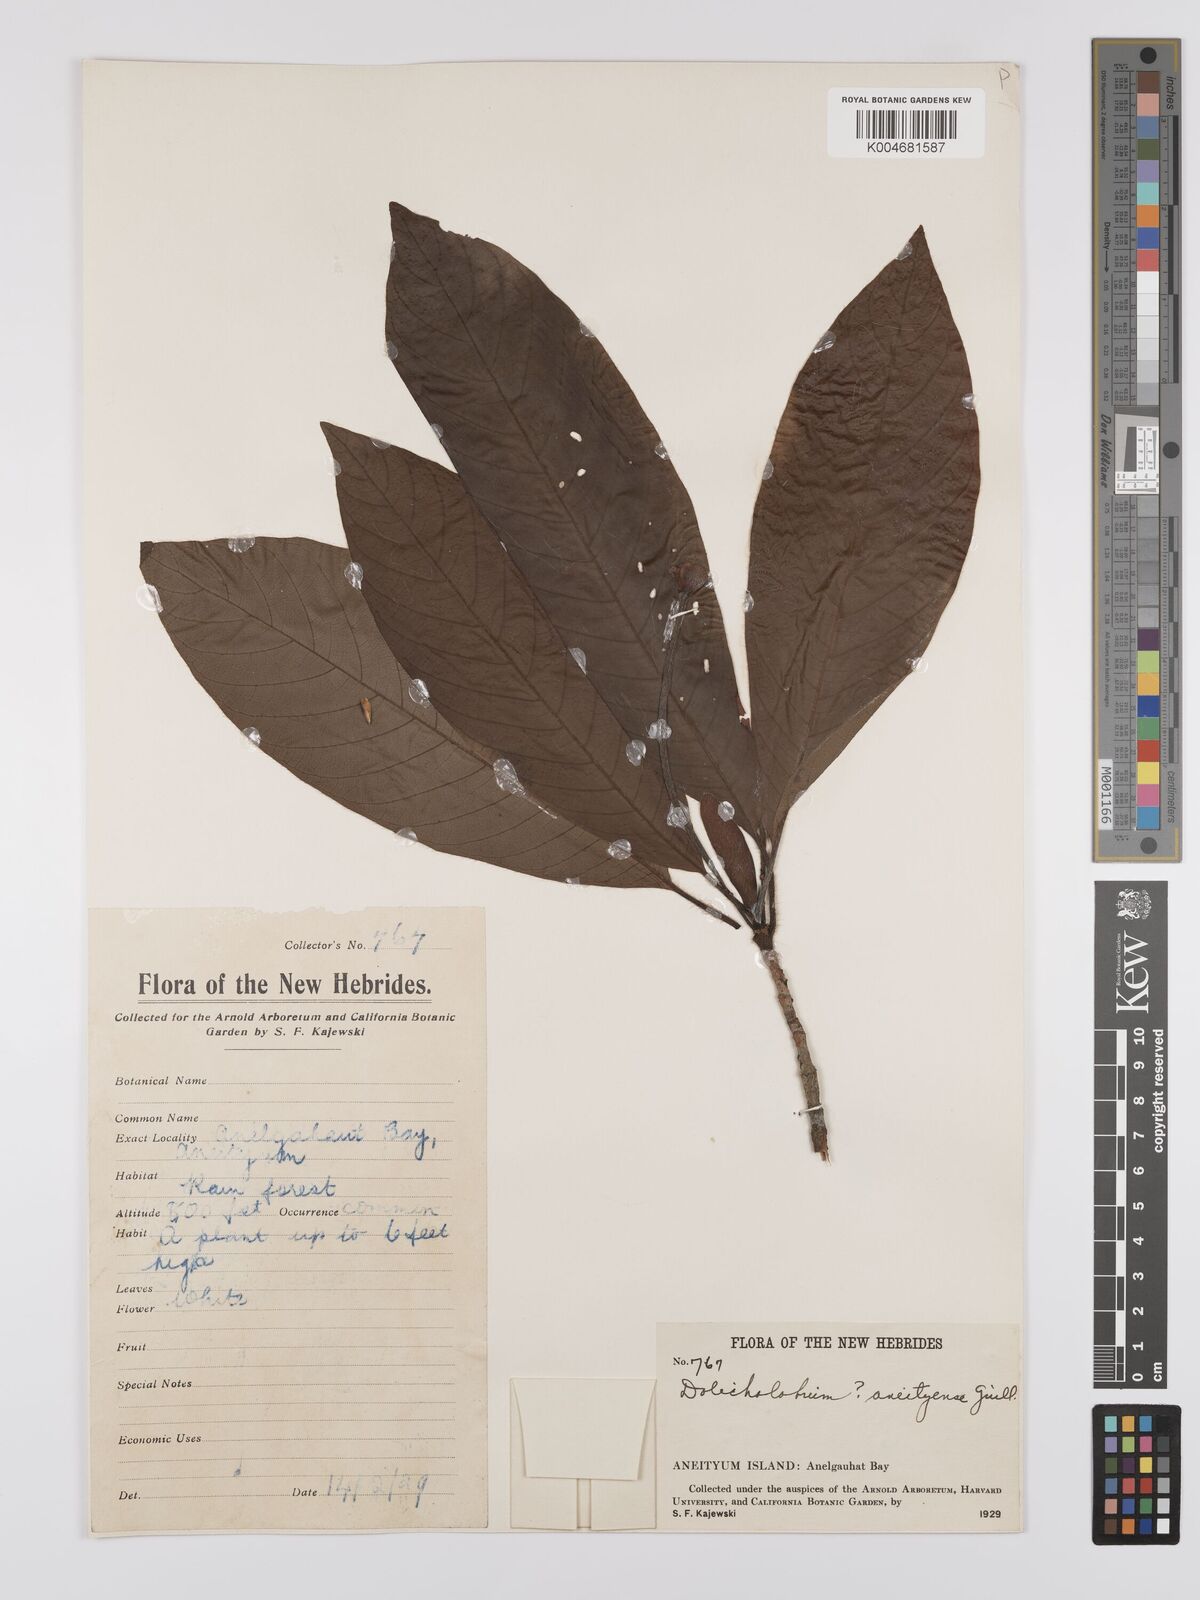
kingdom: Plantae
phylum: Tracheophyta
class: Magnoliopsida
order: Gentianales
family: Rubiaceae
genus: Dolicholobium
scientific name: Dolicholobium oblongifolium
